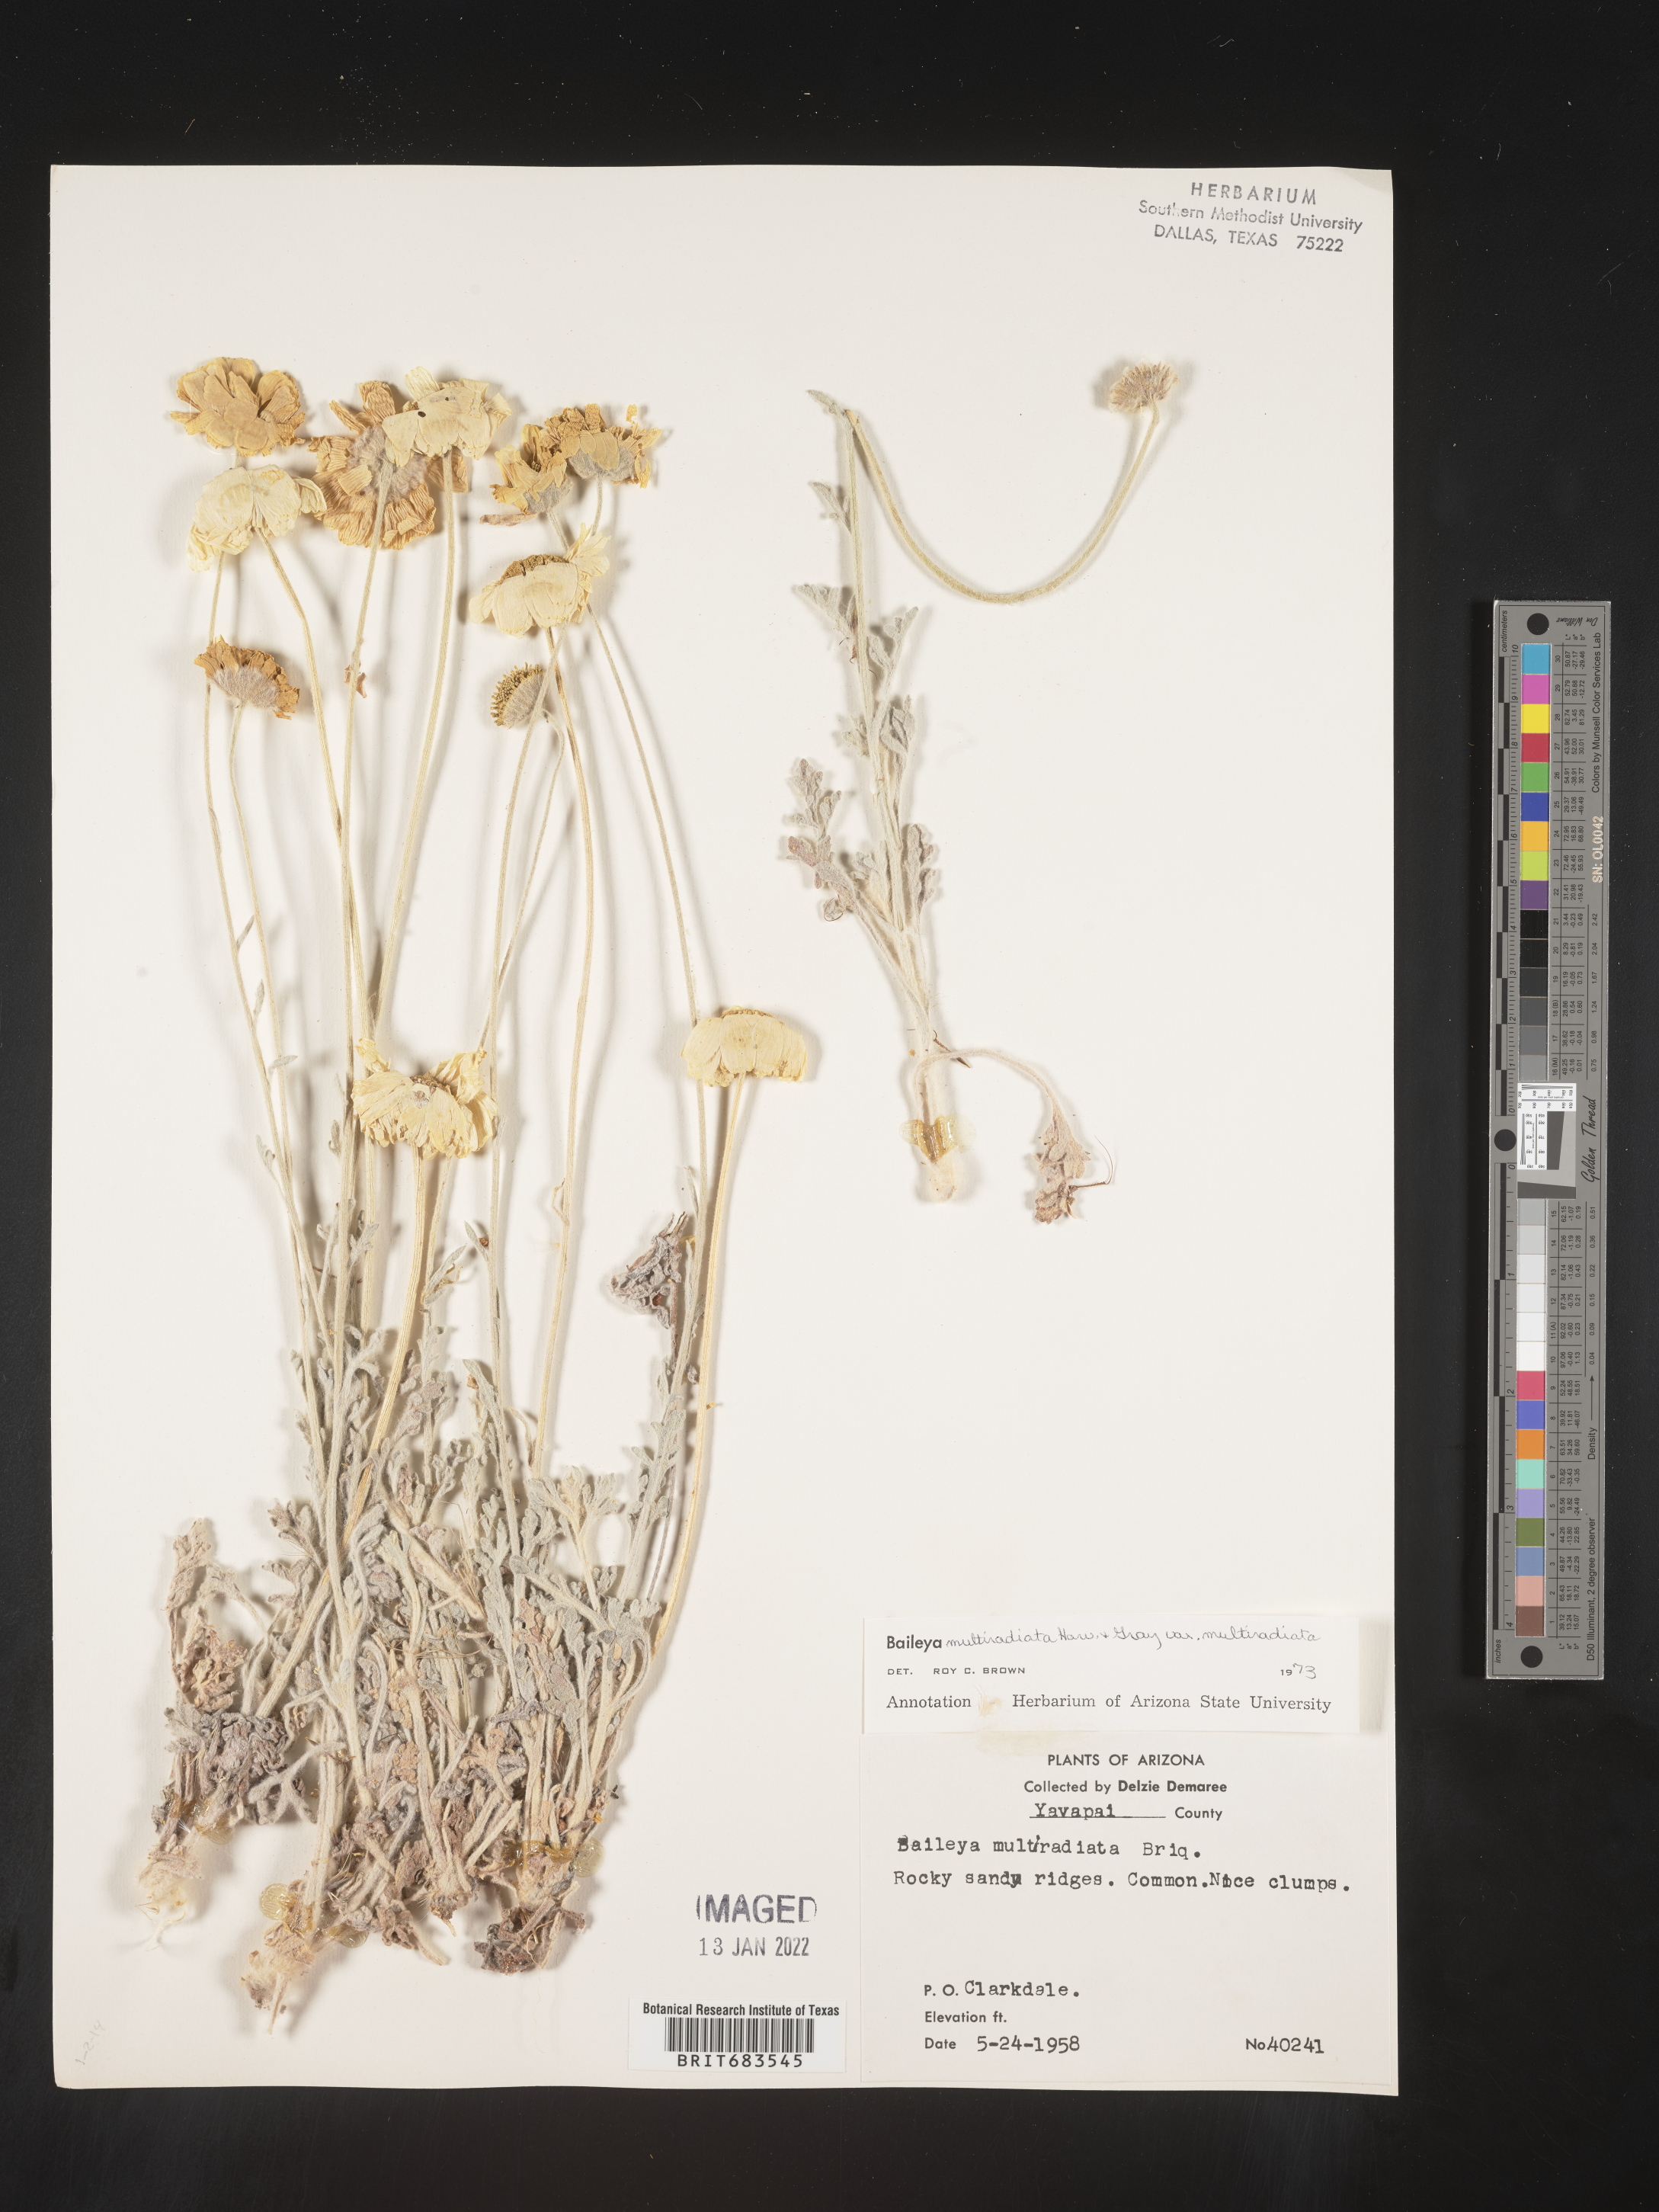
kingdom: Plantae
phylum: Tracheophyta
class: Magnoliopsida
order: Asterales
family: Asteraceae
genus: Baileya
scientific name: Baileya multiradiata
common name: Desert-marigold
